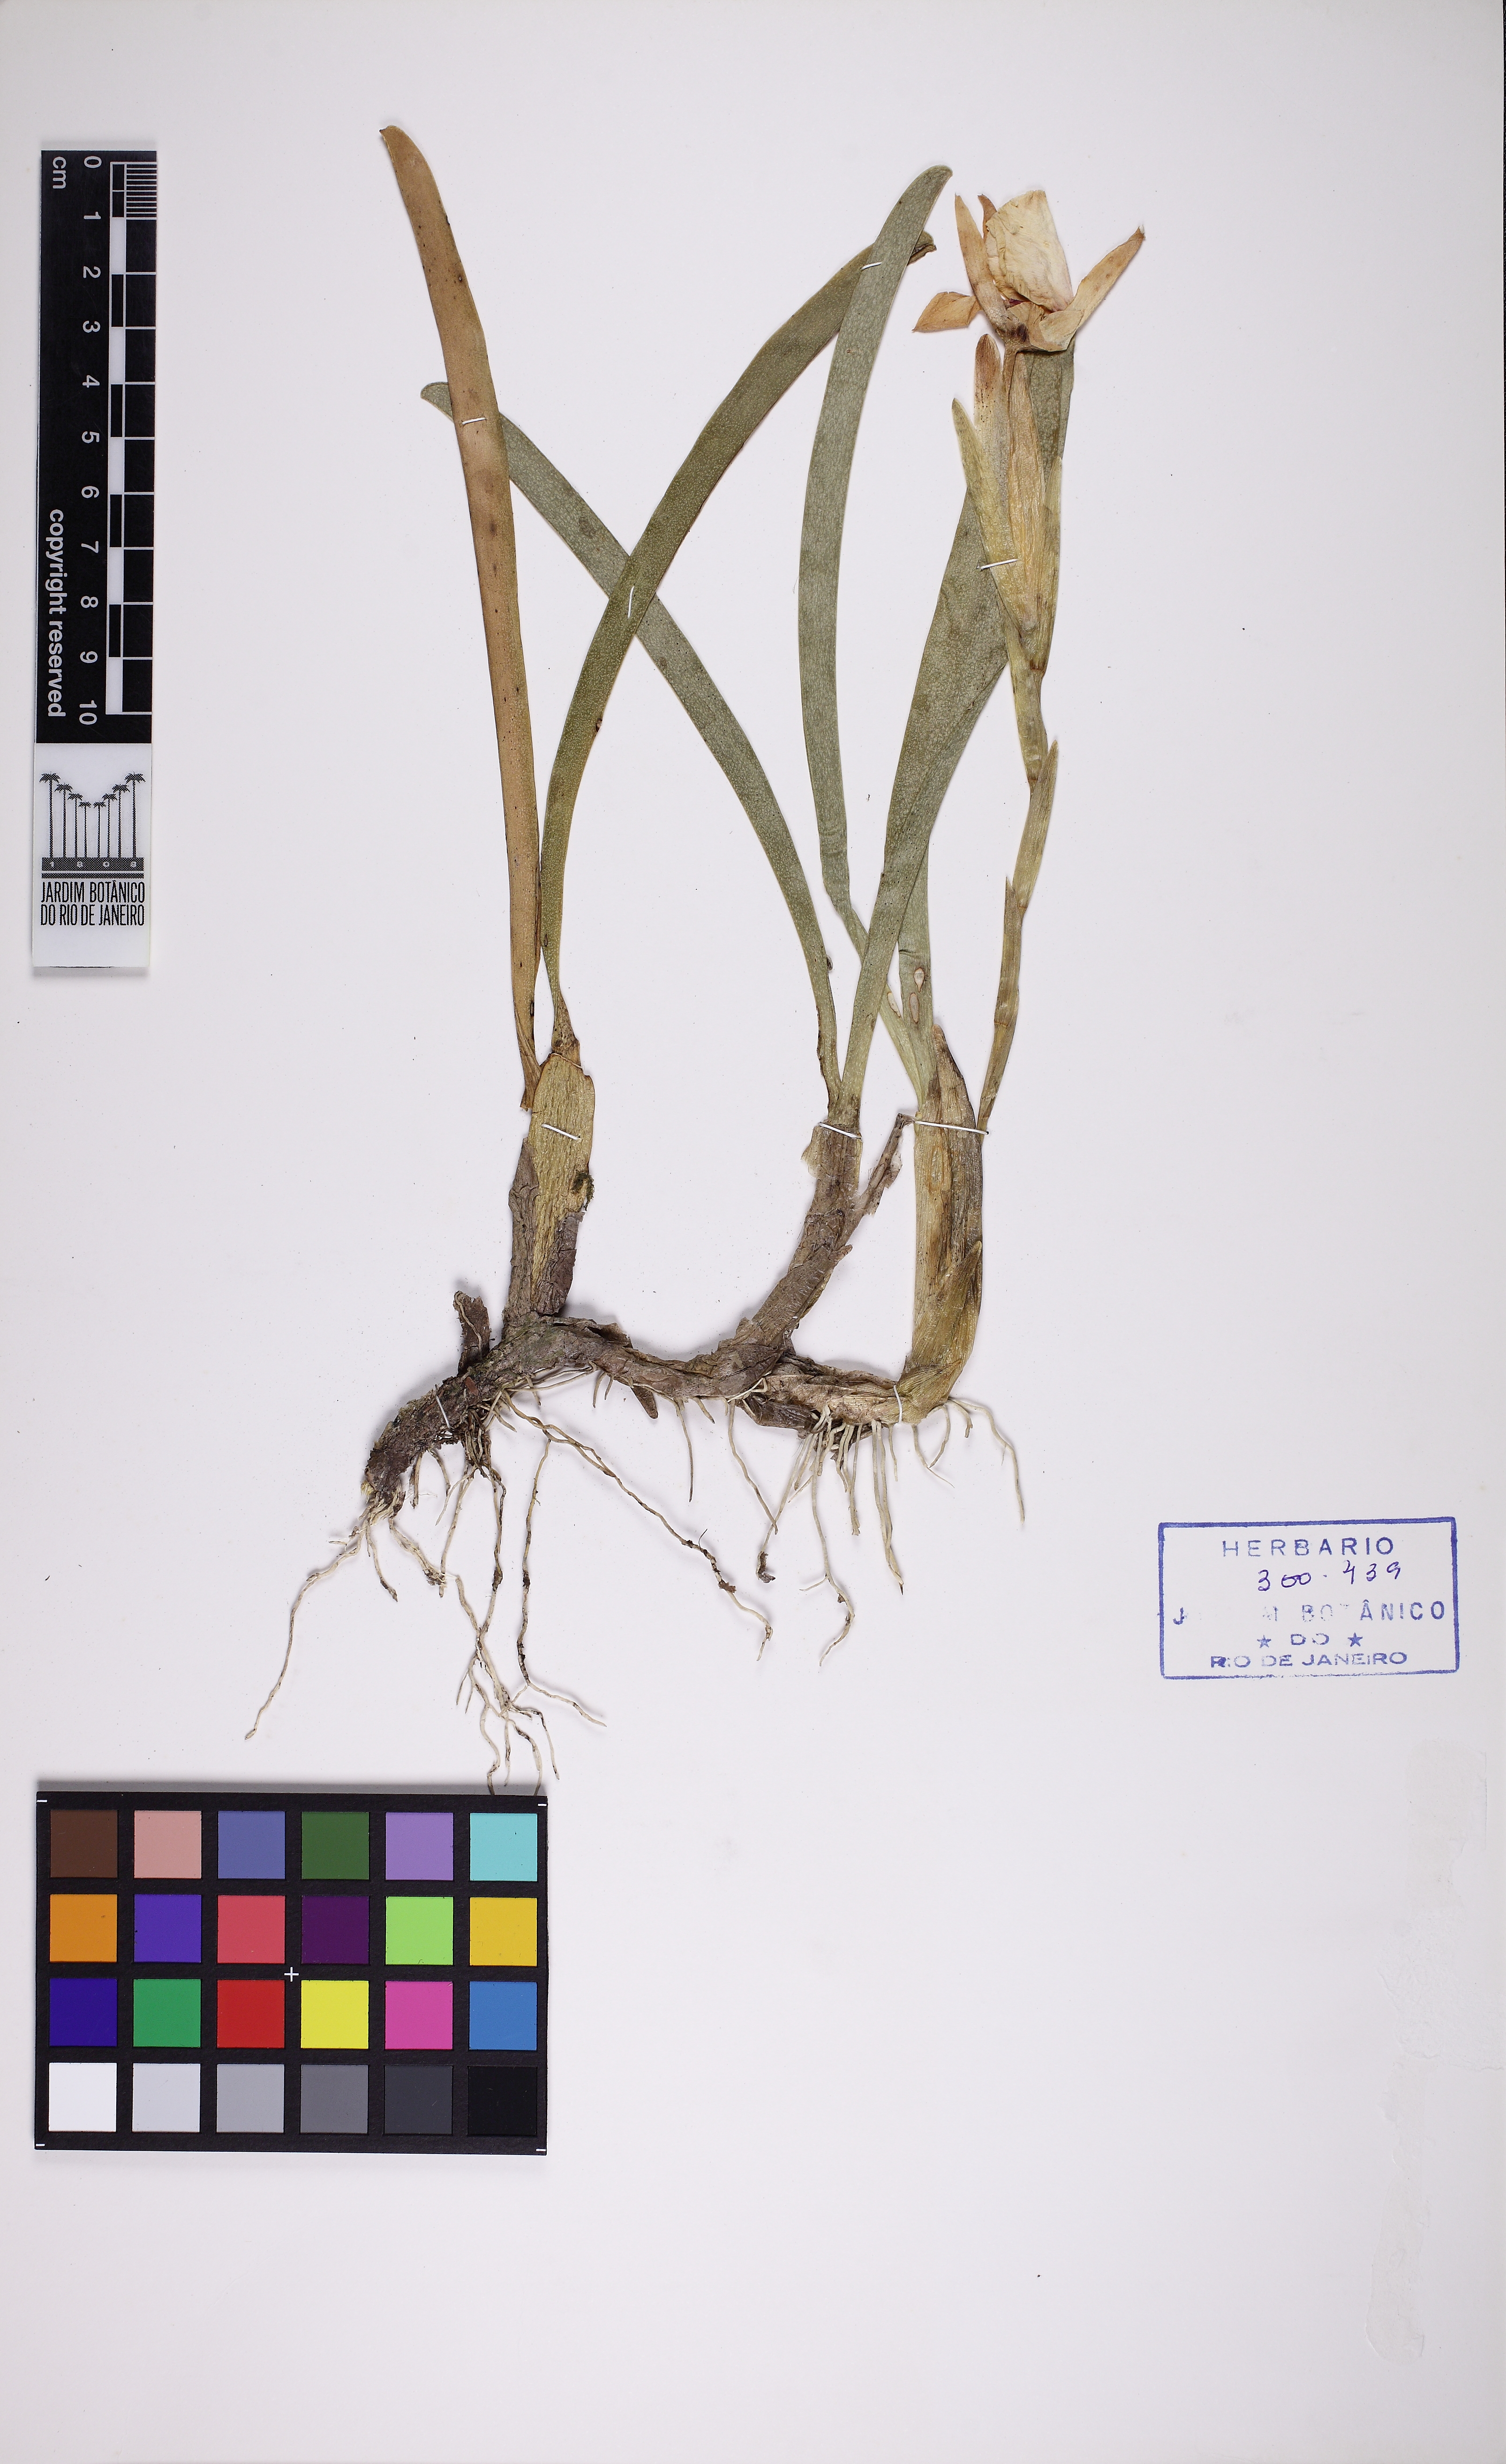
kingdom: Plantae
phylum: Tracheophyta
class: Liliopsida
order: Asparagales
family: Orchidaceae
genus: Miltonia
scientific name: Miltonia spectabilis
